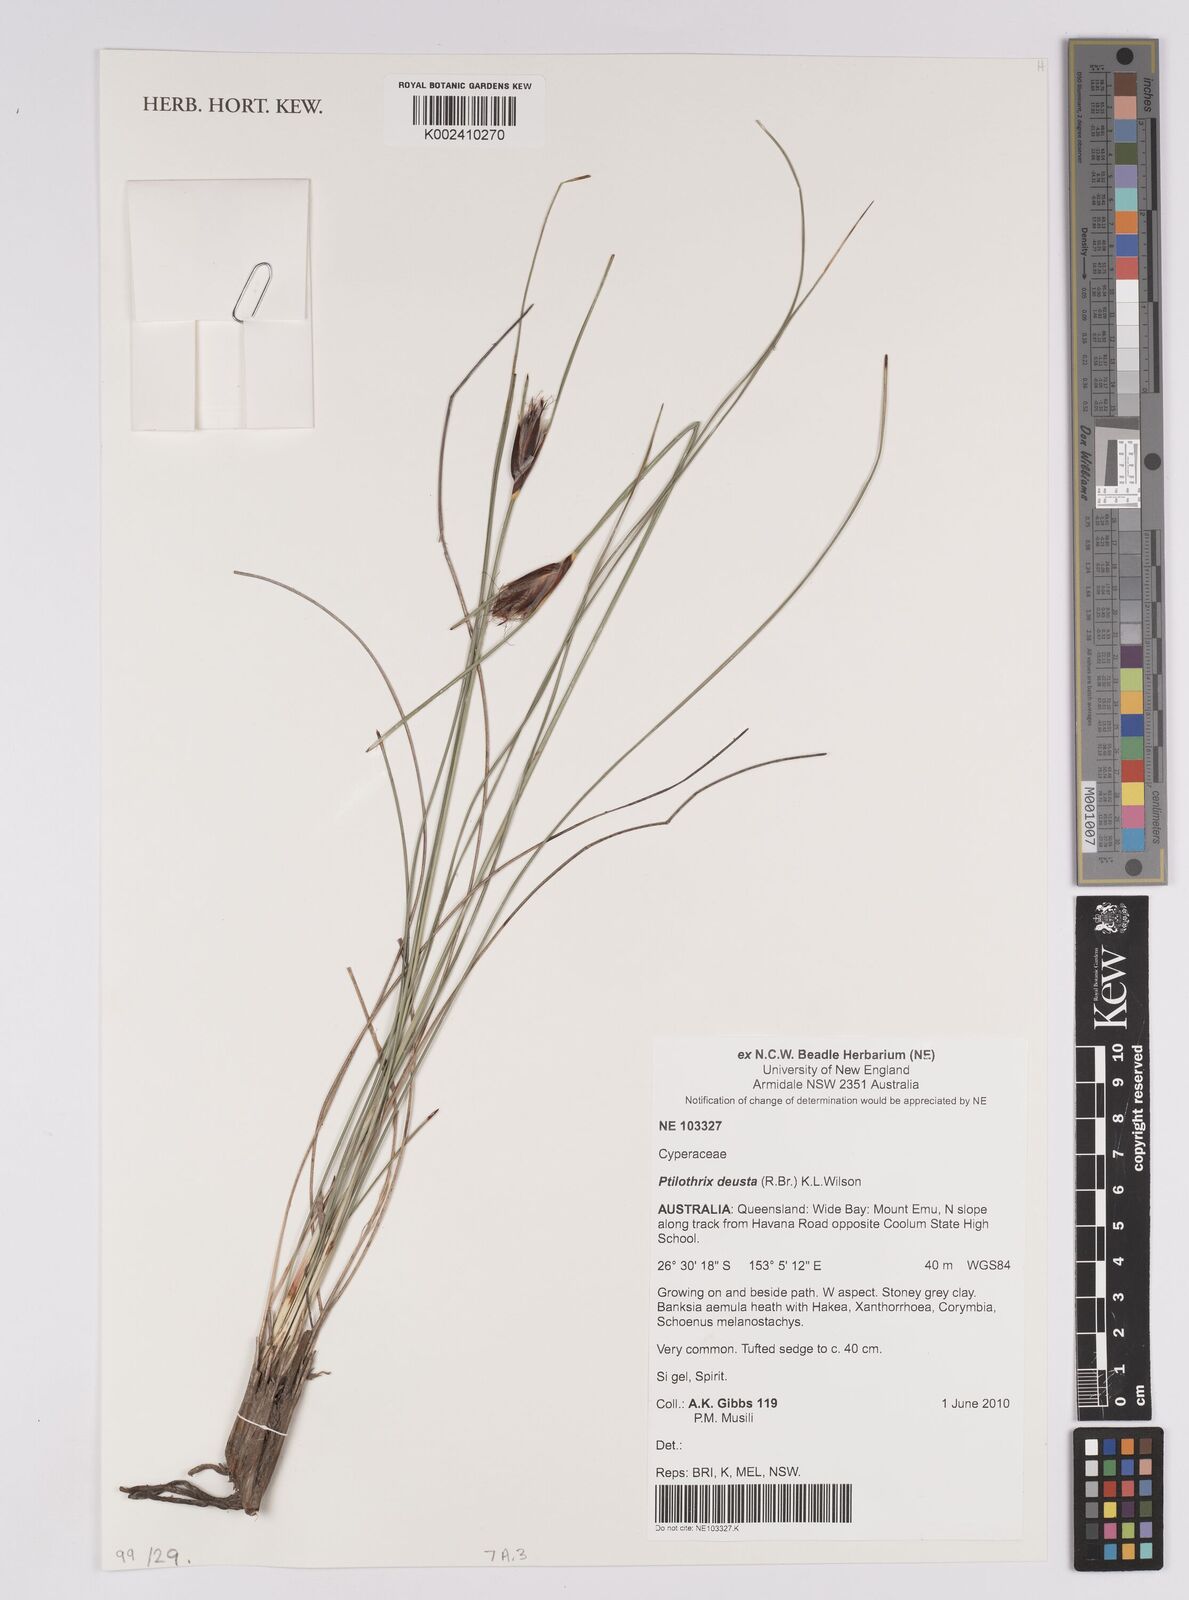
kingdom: Plantae
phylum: Tracheophyta
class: Liliopsida
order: Poales
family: Cyperaceae
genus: Calyptrocarya
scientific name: Calyptrocarya
